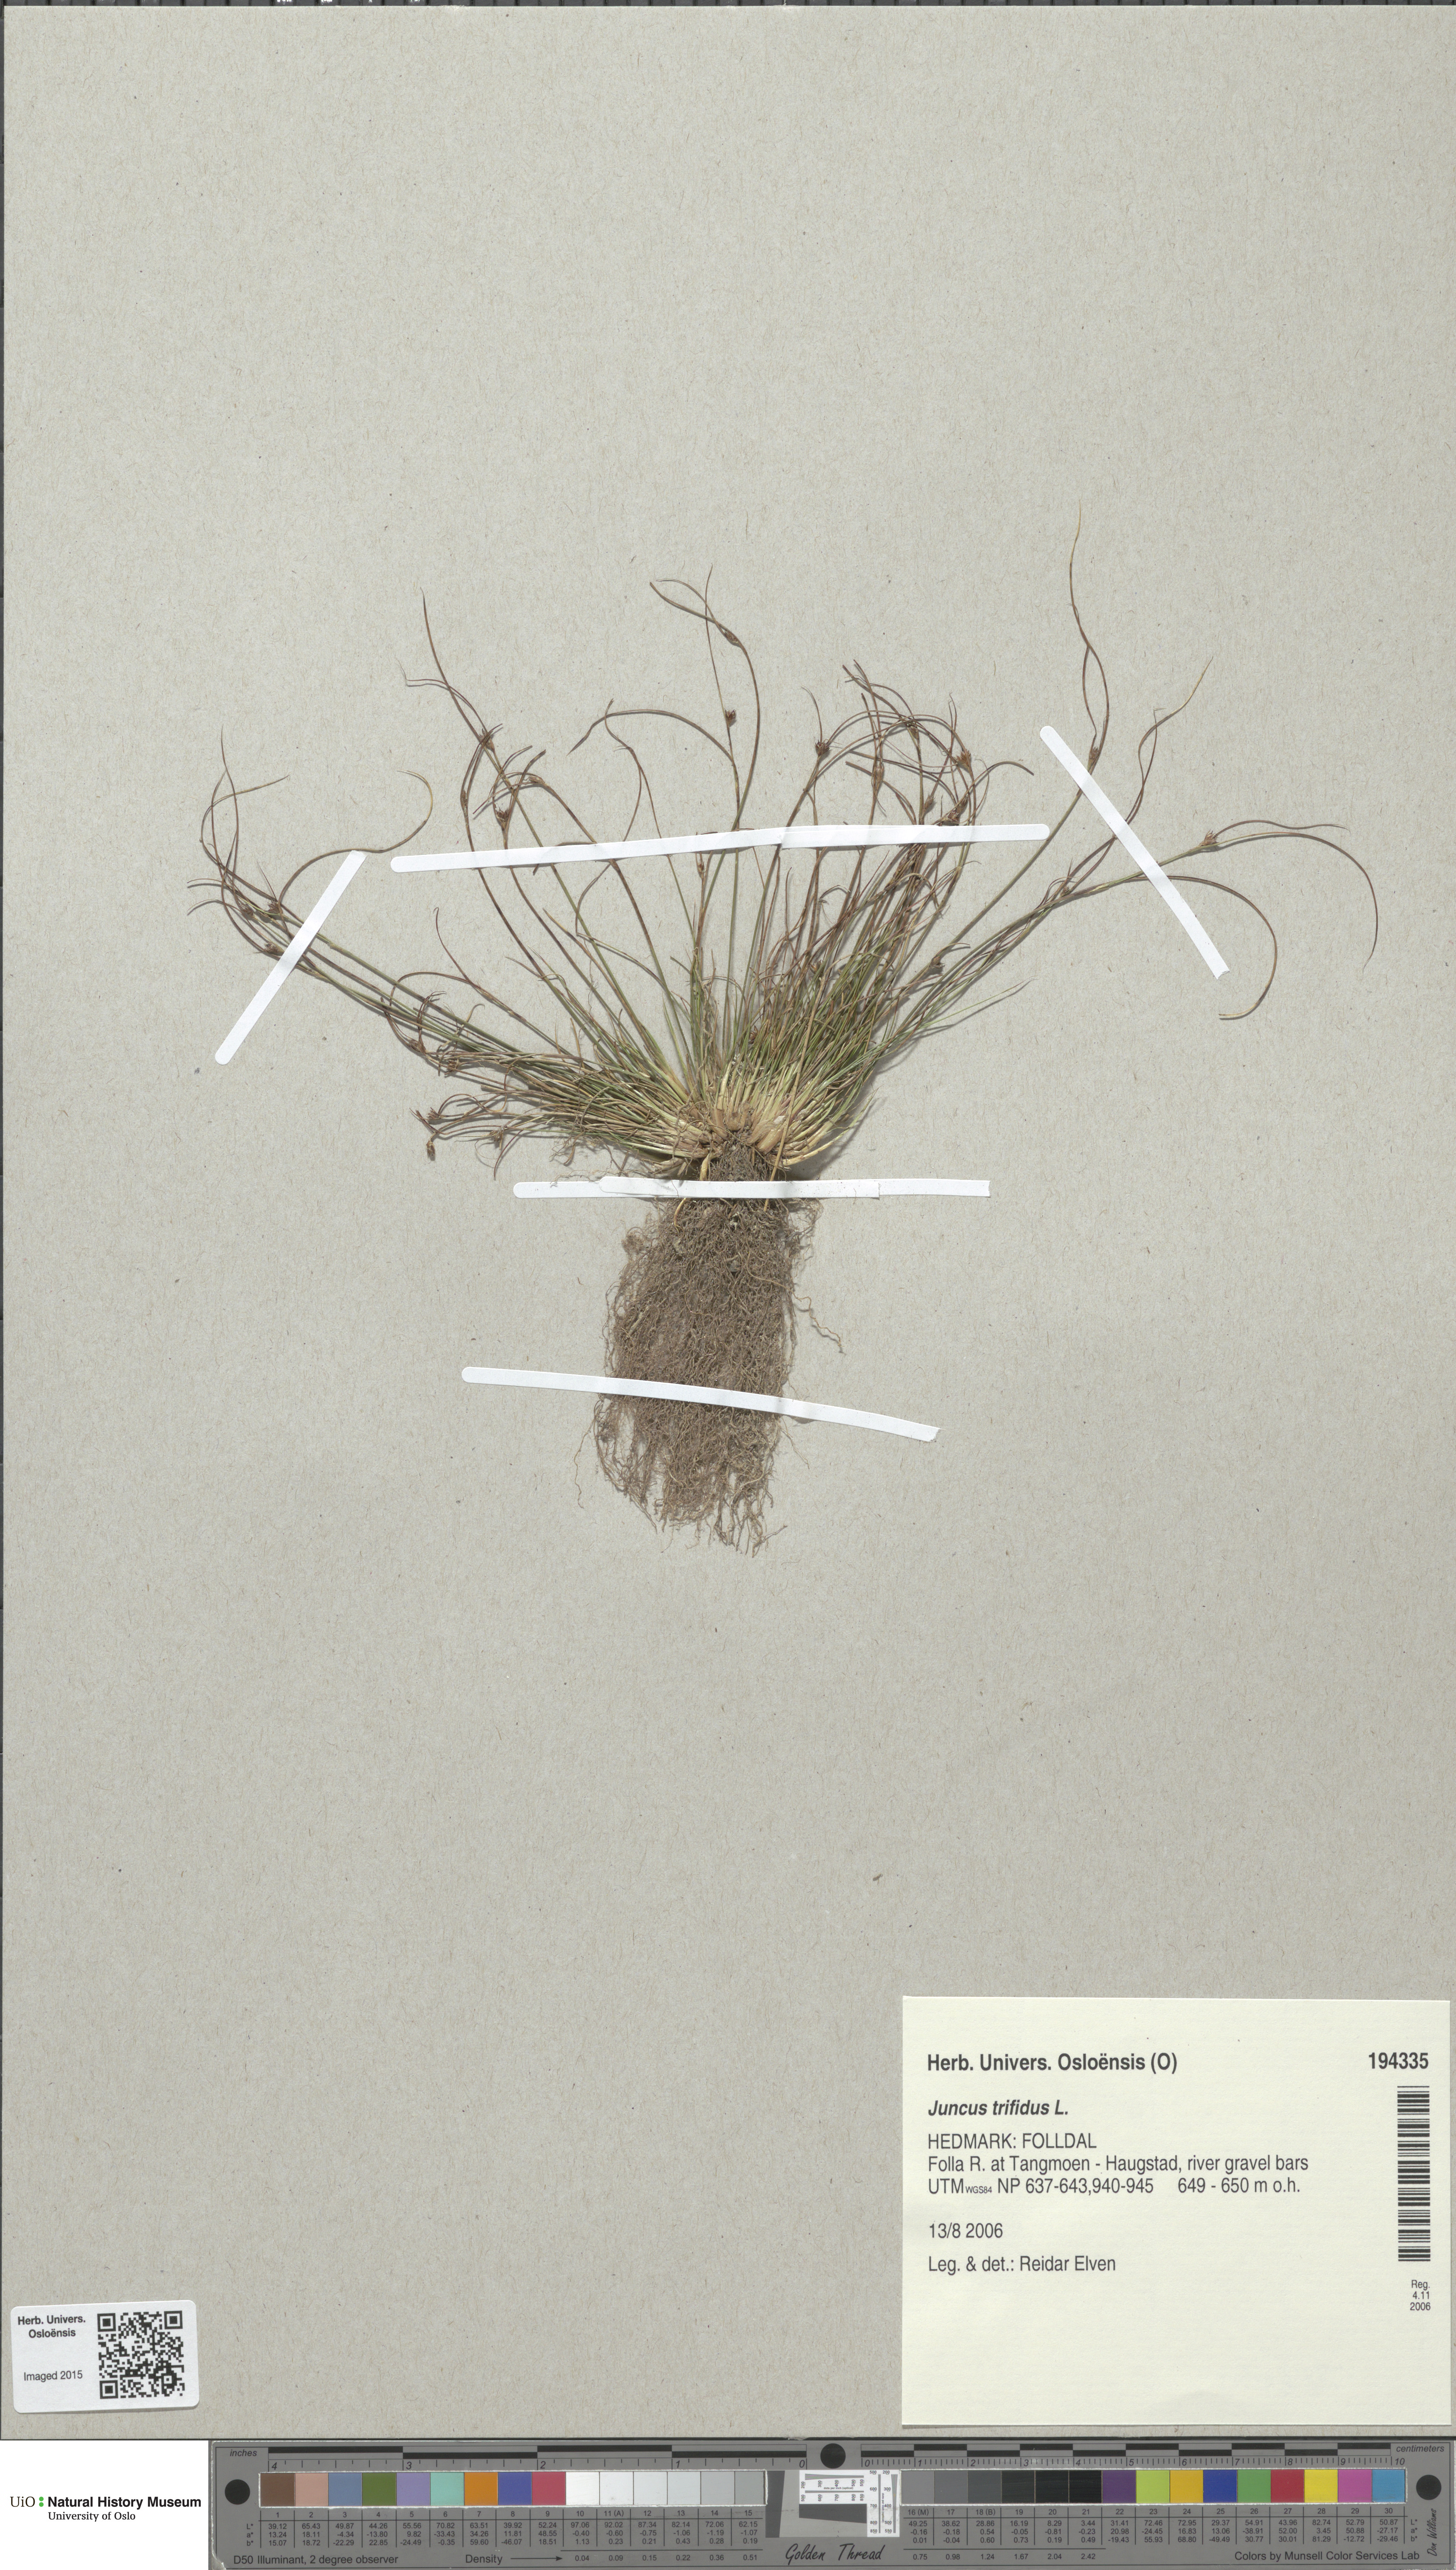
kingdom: Plantae
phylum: Tracheophyta
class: Liliopsida
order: Poales
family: Juncaceae
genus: Oreojuncus
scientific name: Oreojuncus trifidus
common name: Highland rush
